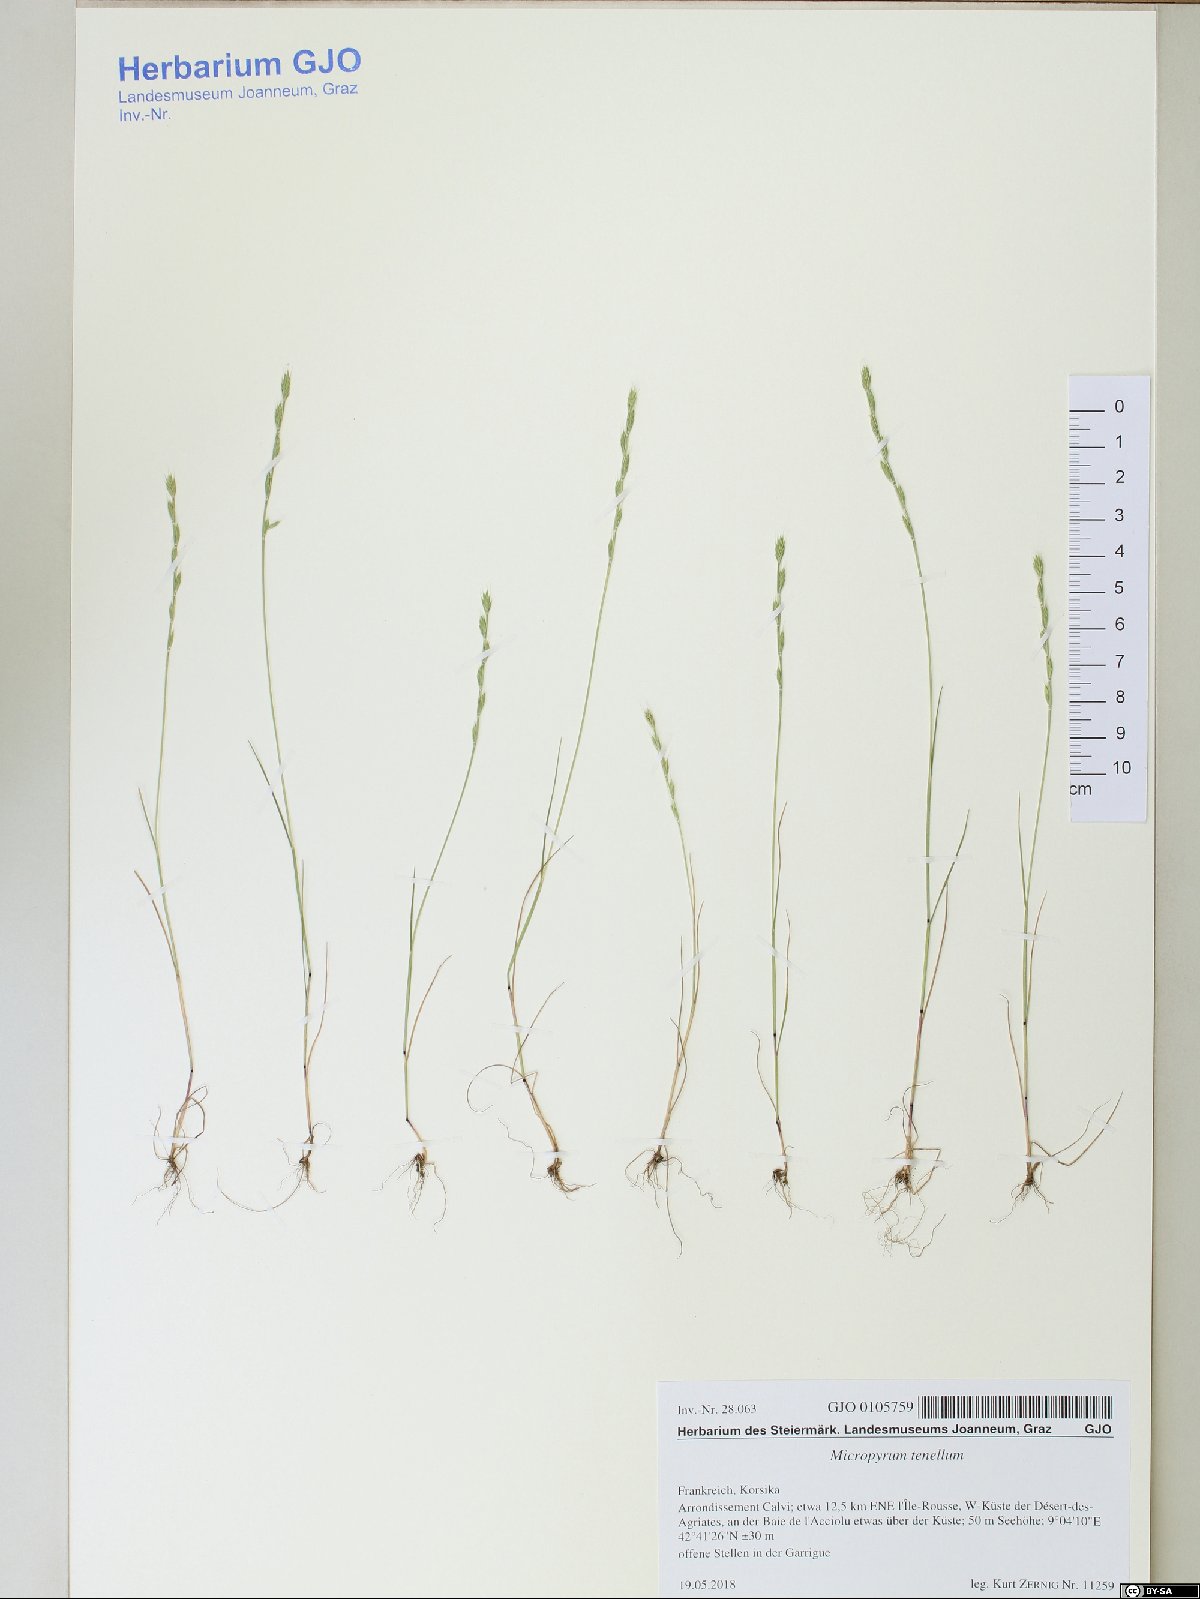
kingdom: Plantae
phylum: Tracheophyta
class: Liliopsida
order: Poales
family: Poaceae
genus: Festuca
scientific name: Festuca lachenalii
